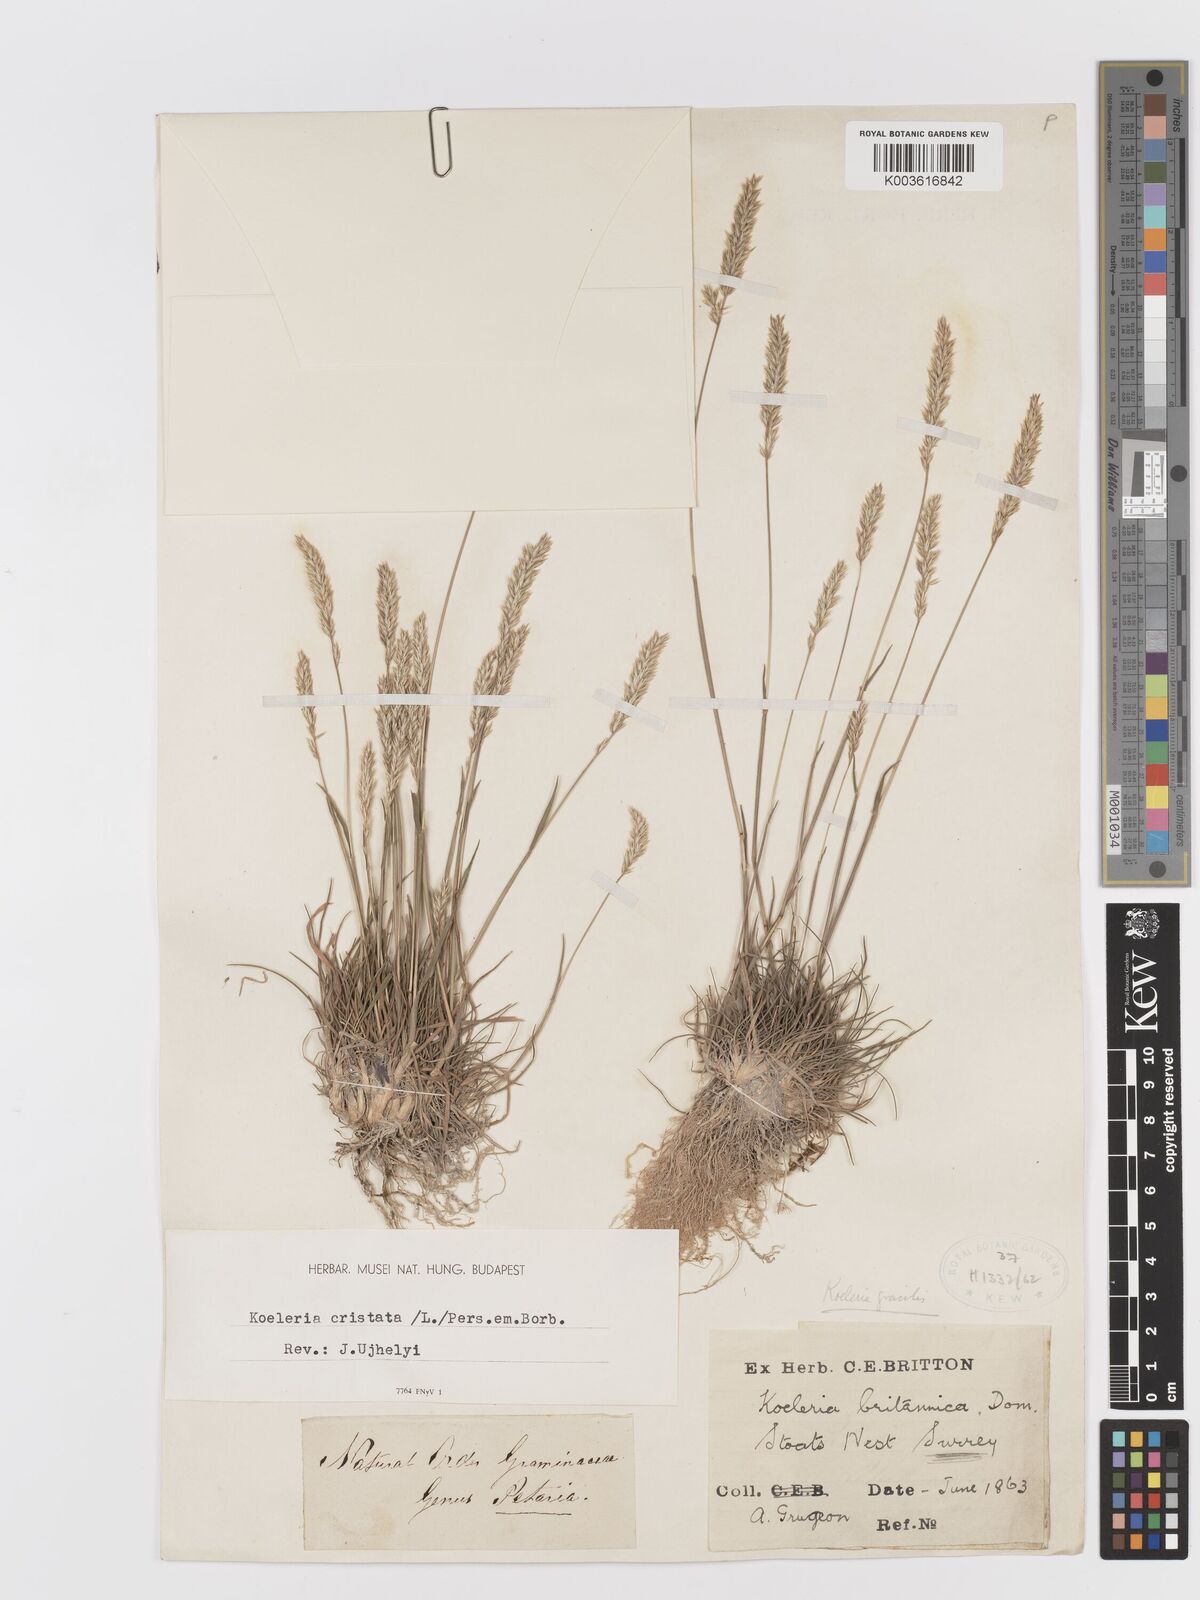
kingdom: Plantae
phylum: Tracheophyta
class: Liliopsida
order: Poales
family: Poaceae
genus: Koeleria
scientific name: Koeleria macrantha
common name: Crested hair-grass
